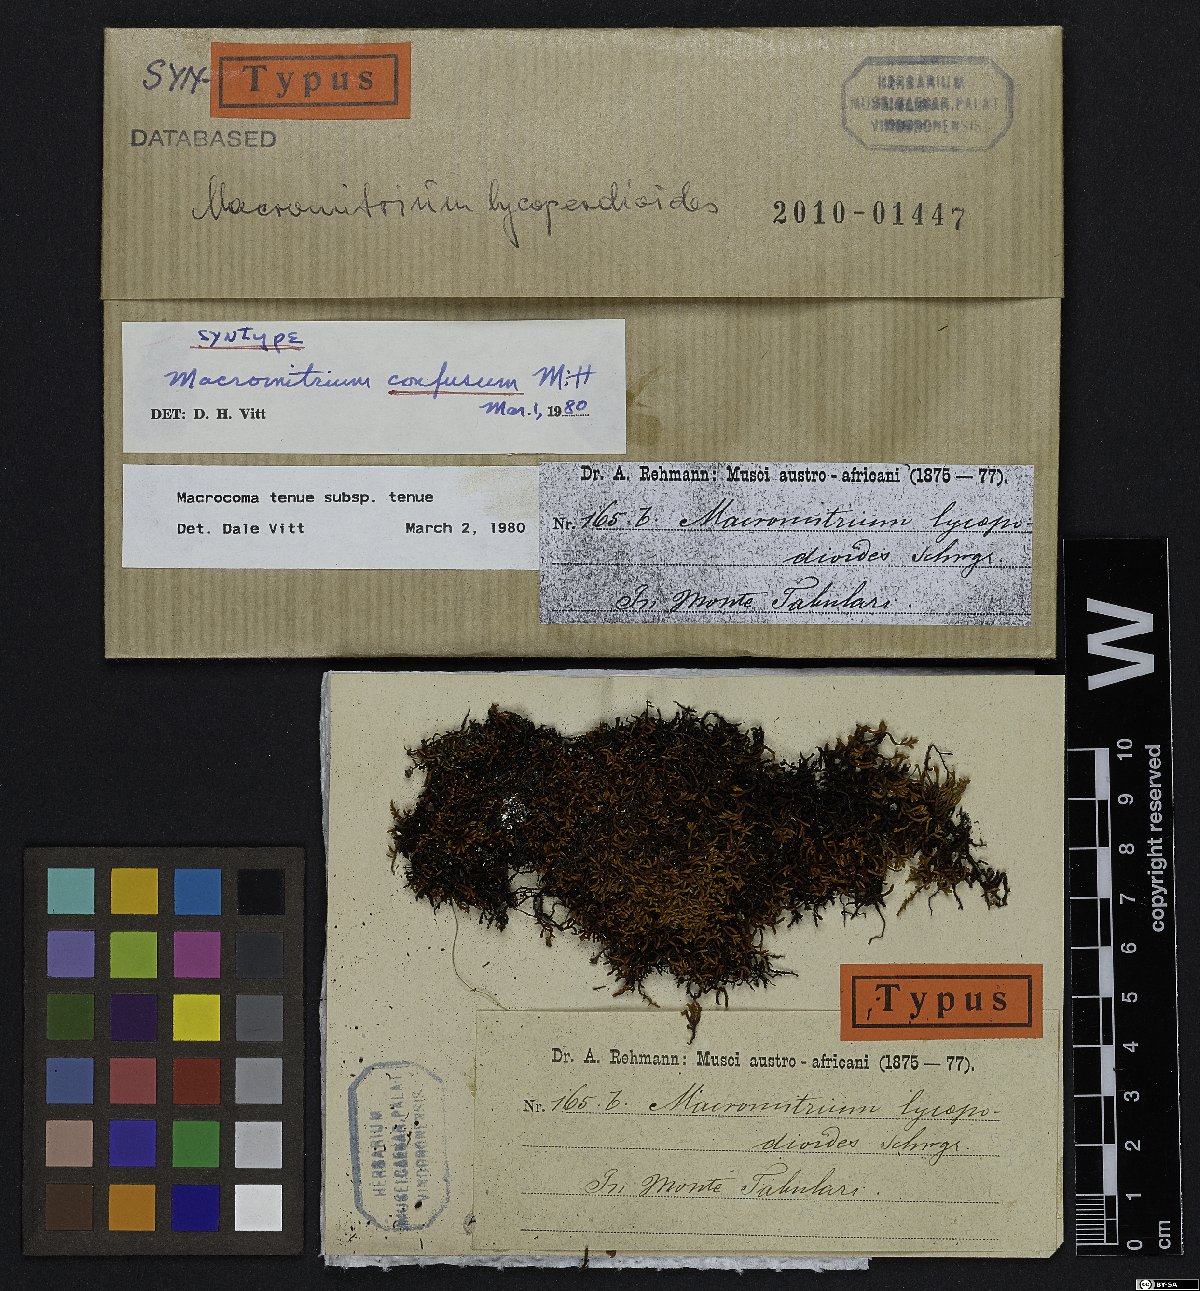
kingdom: Plantae
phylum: Bryophyta
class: Bryopsida
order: Orthotrichales
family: Orthotrichaceae
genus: Macrocoma
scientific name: Macrocoma tenuis
